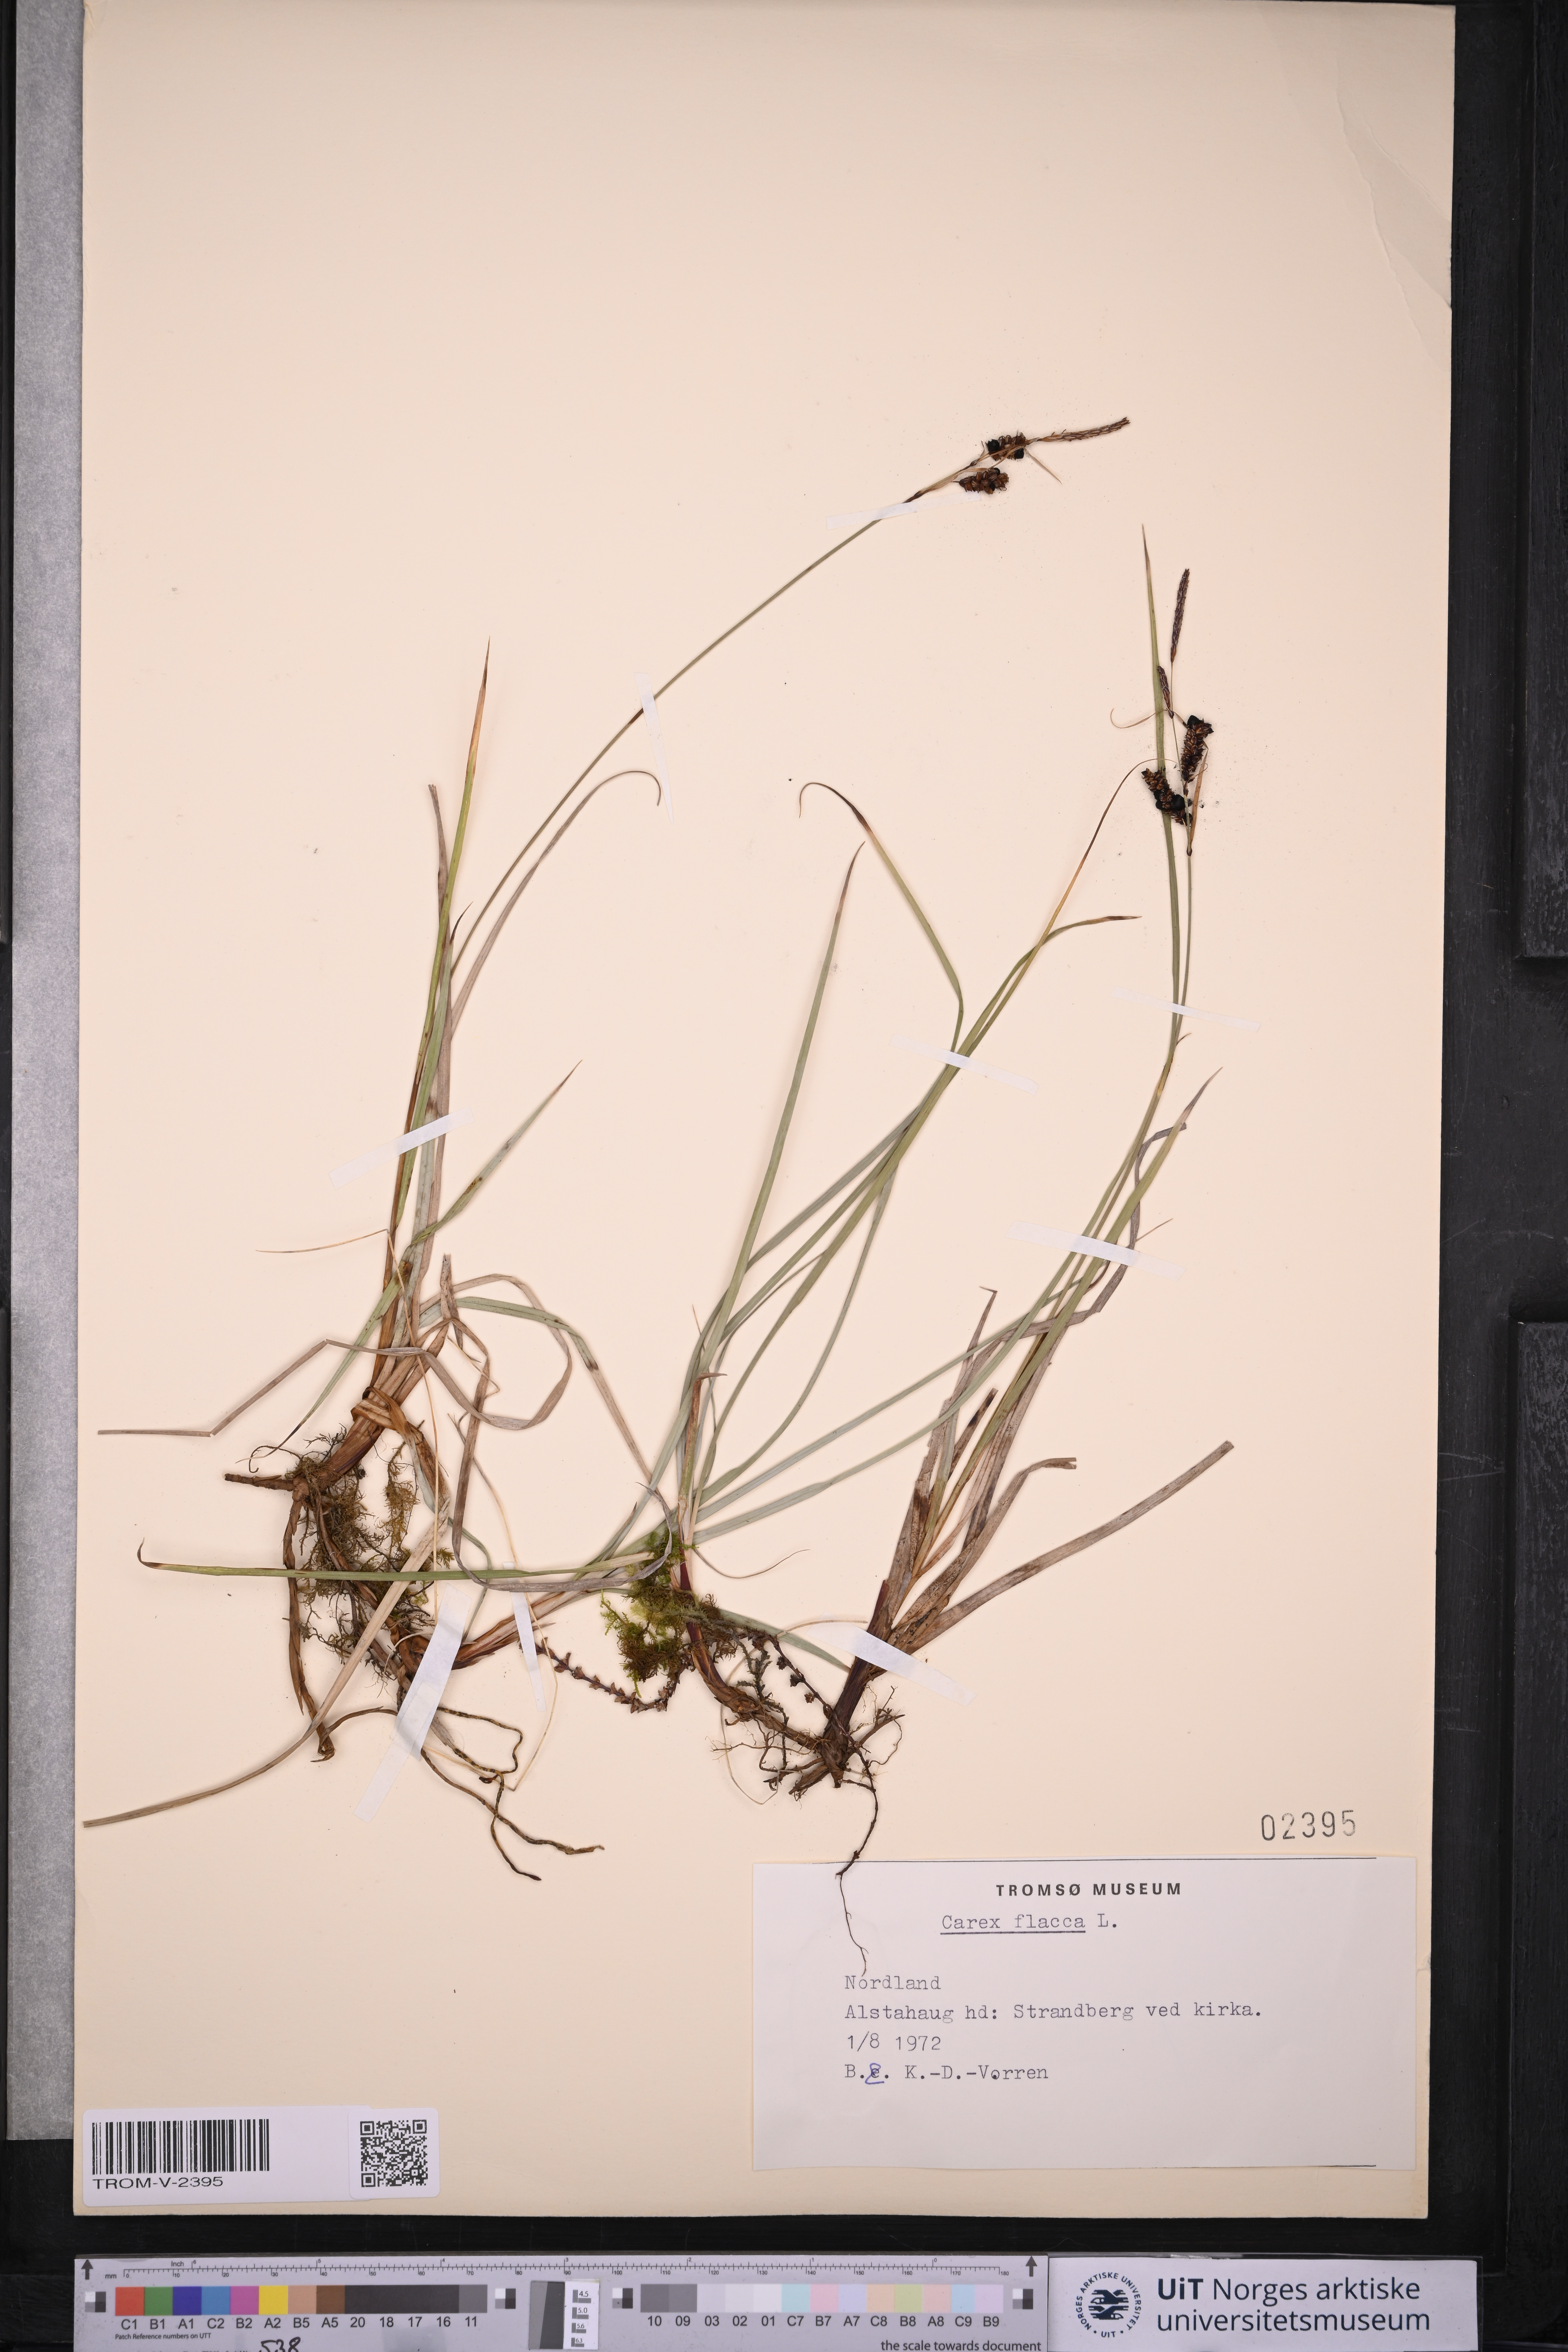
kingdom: Plantae
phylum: Tracheophyta
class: Liliopsida
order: Poales
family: Cyperaceae
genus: Carex
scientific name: Carex flacca
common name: Glaucous sedge
